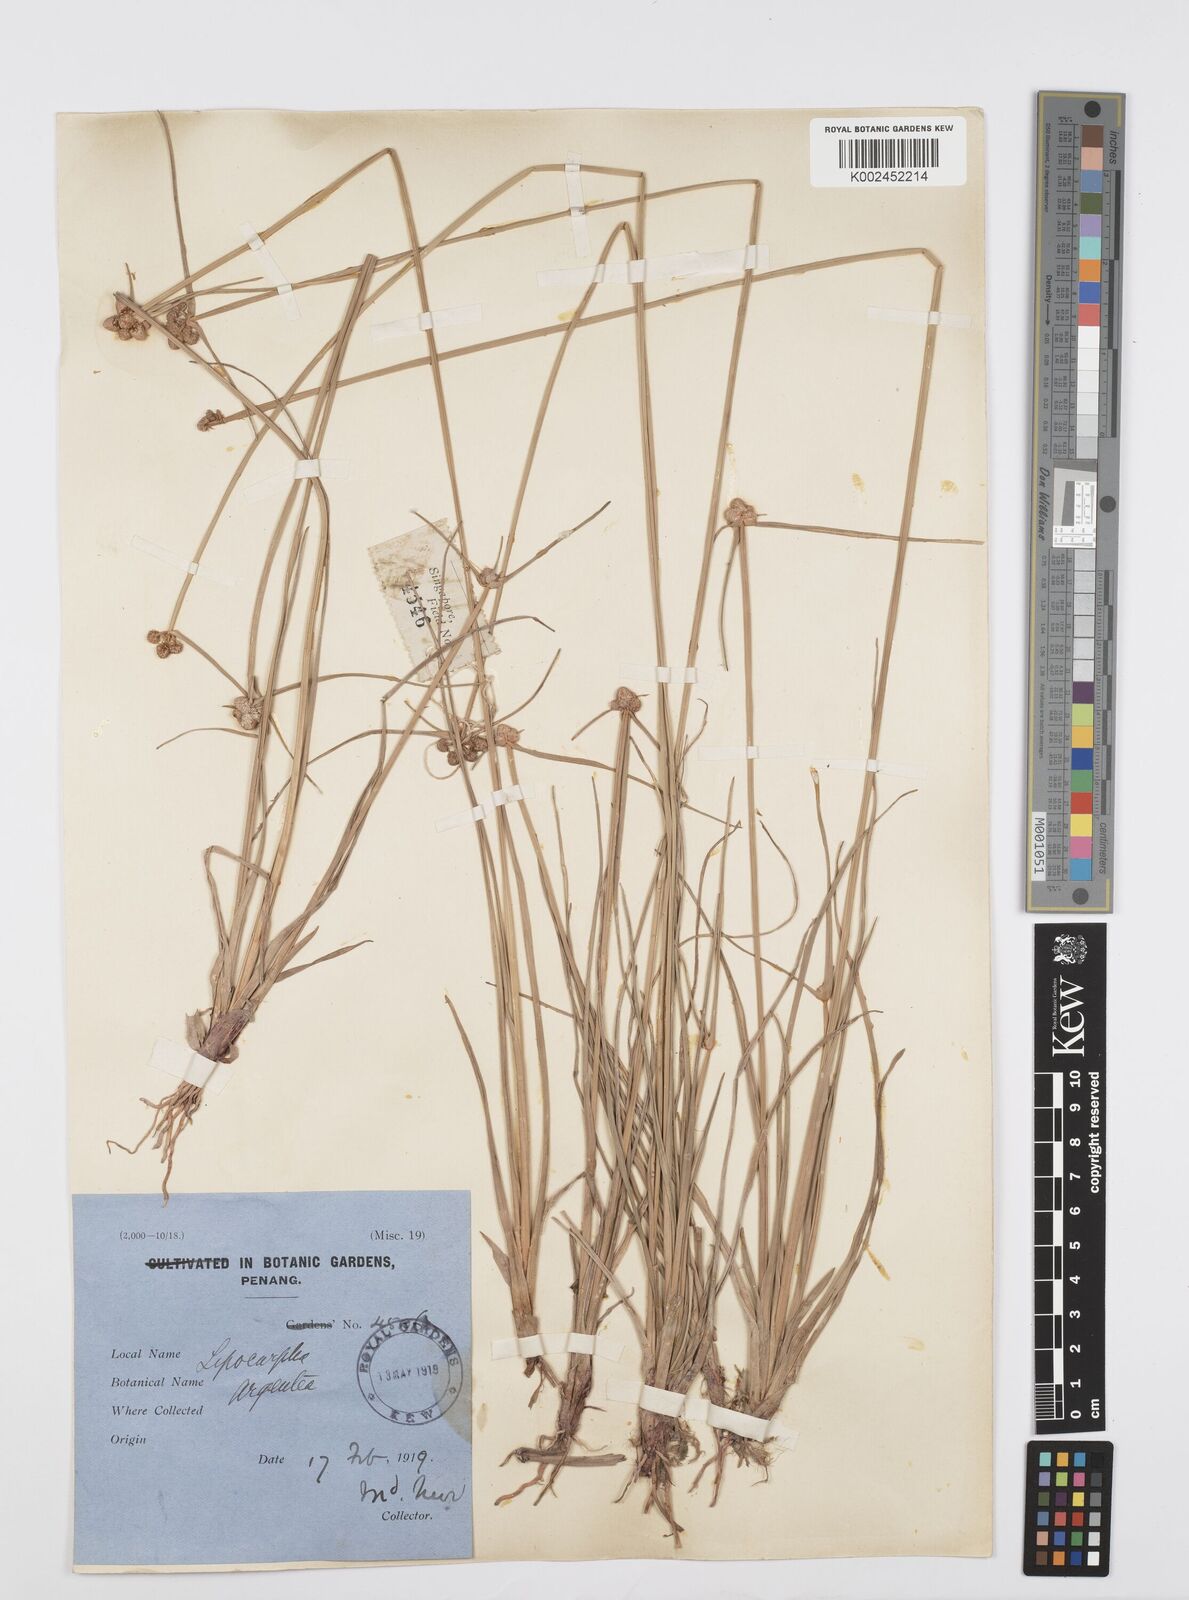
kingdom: Plantae
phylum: Tracheophyta
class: Liliopsida
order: Poales
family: Cyperaceae
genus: Cyperus
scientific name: Cyperus
